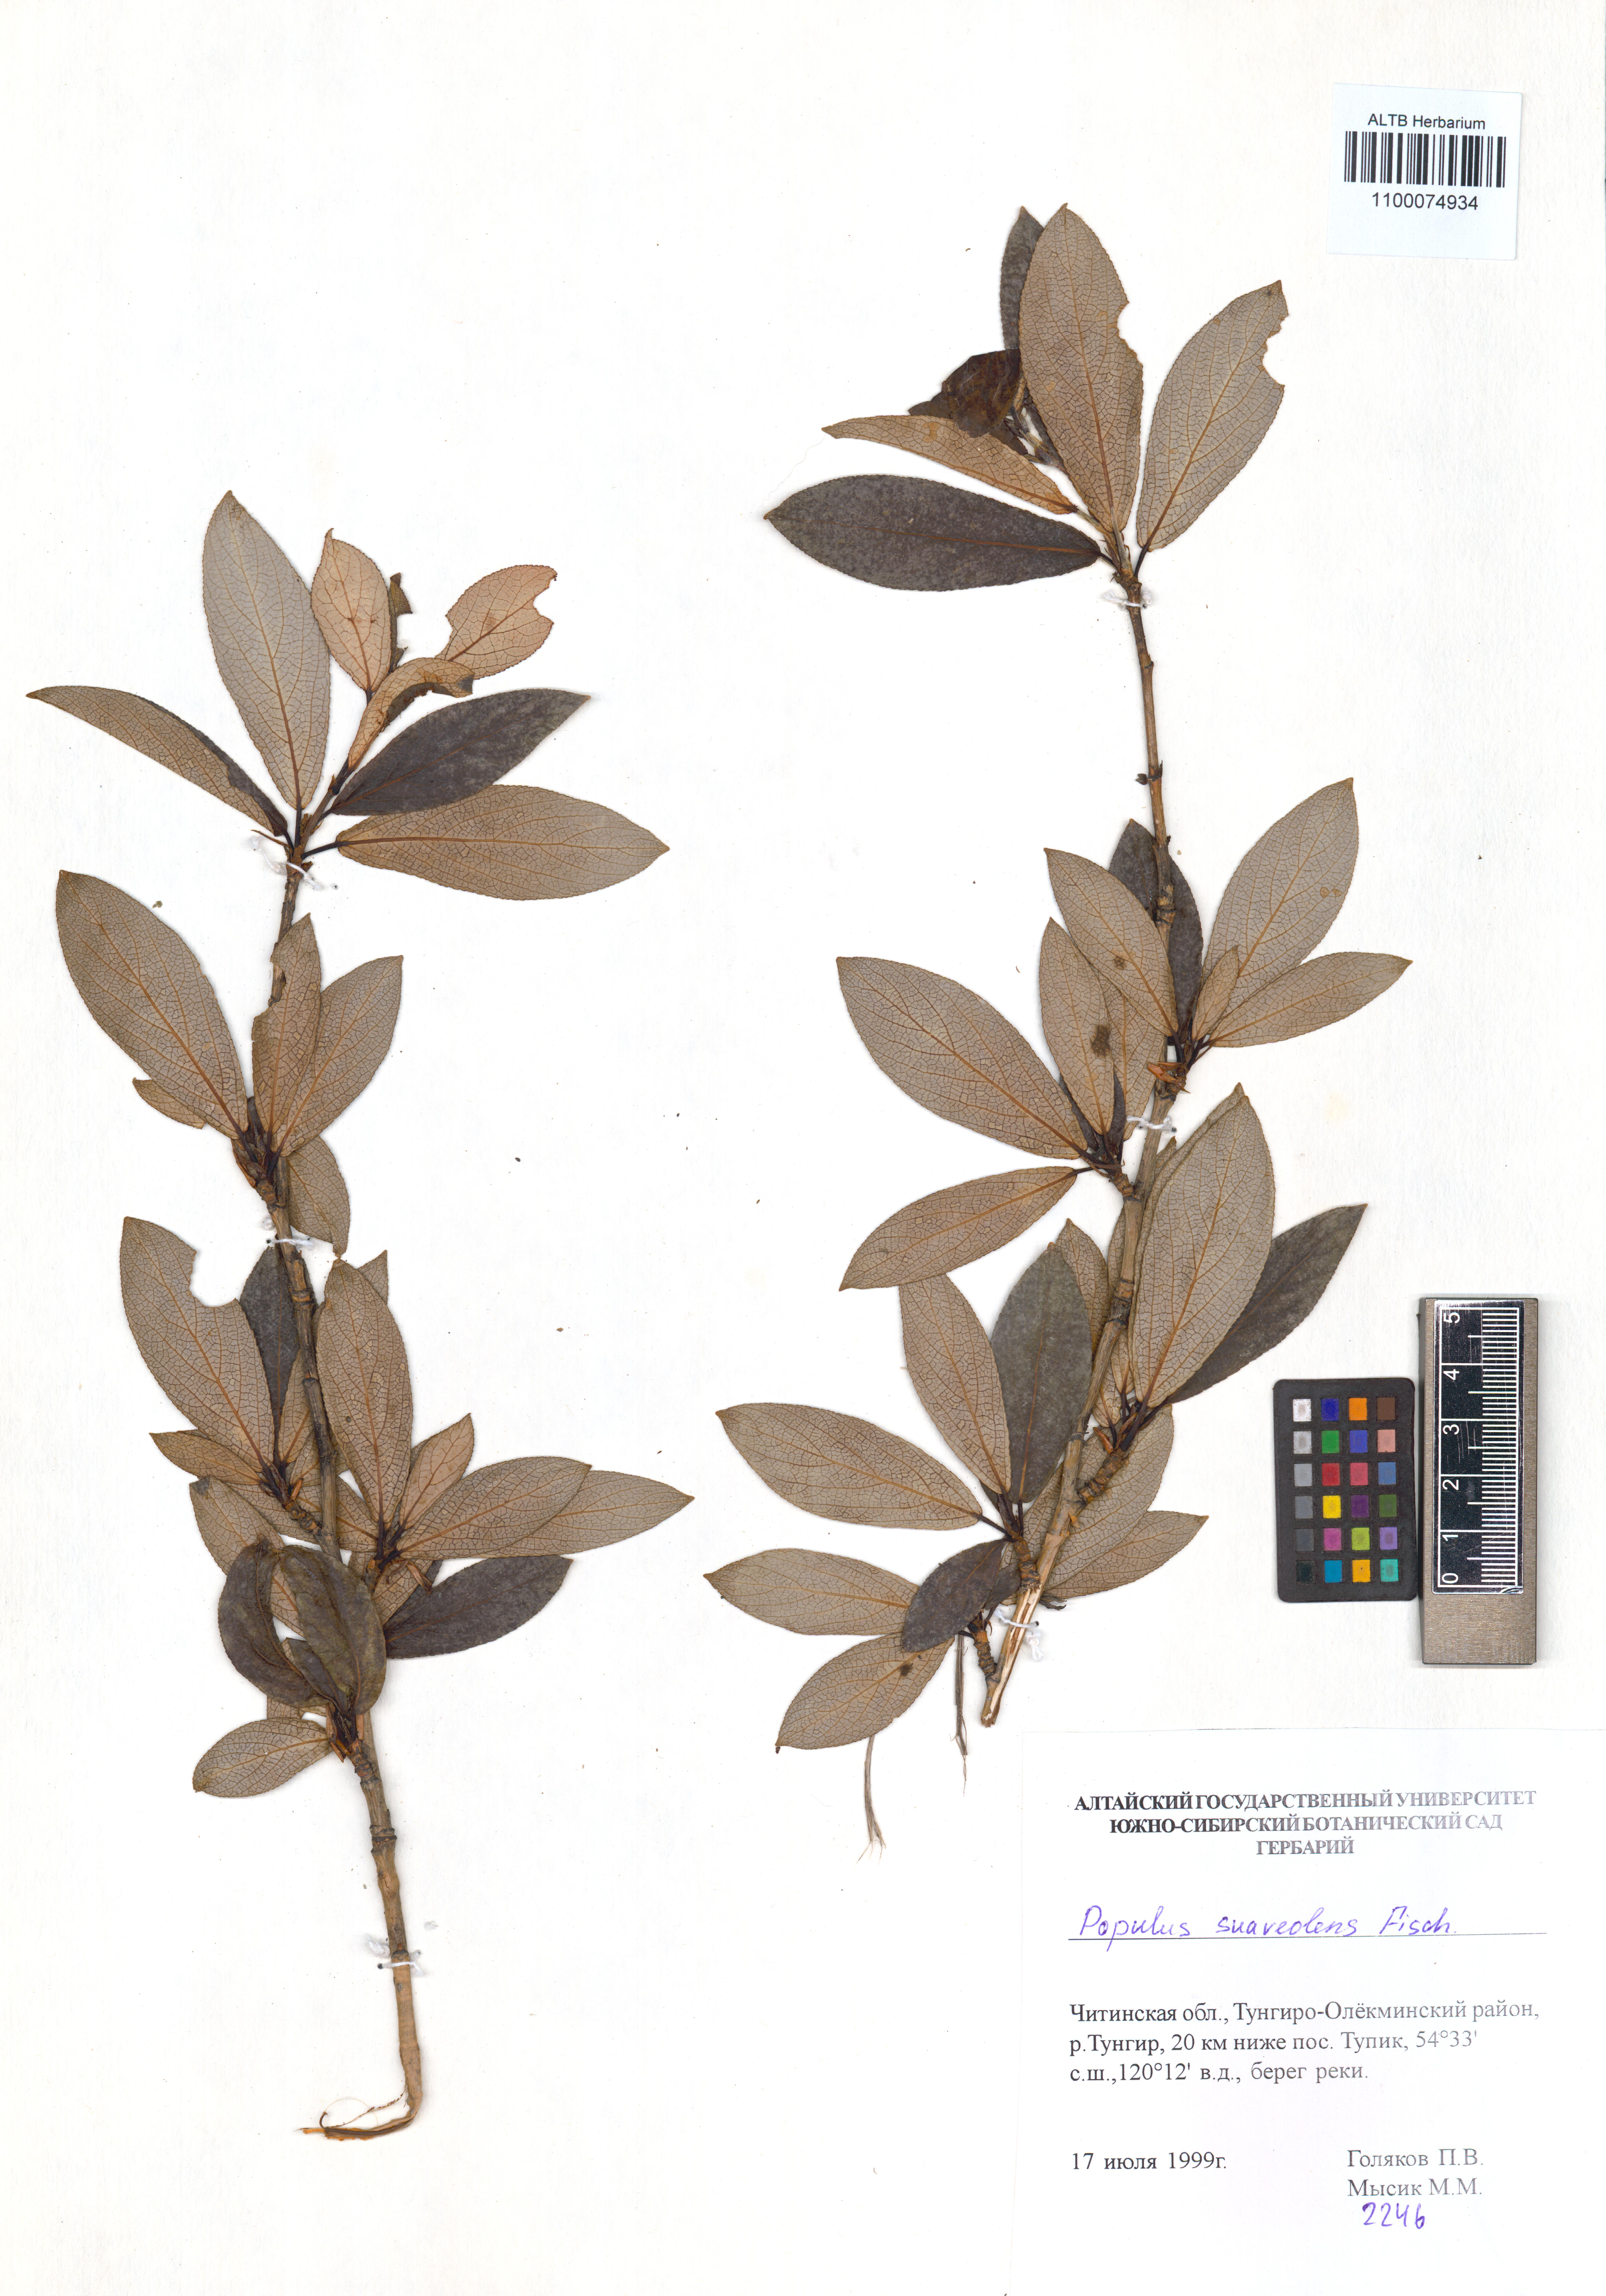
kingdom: Plantae
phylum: Tracheophyta
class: Magnoliopsida
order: Malpighiales
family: Salicaceae
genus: Populus
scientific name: Populus suaveolens
